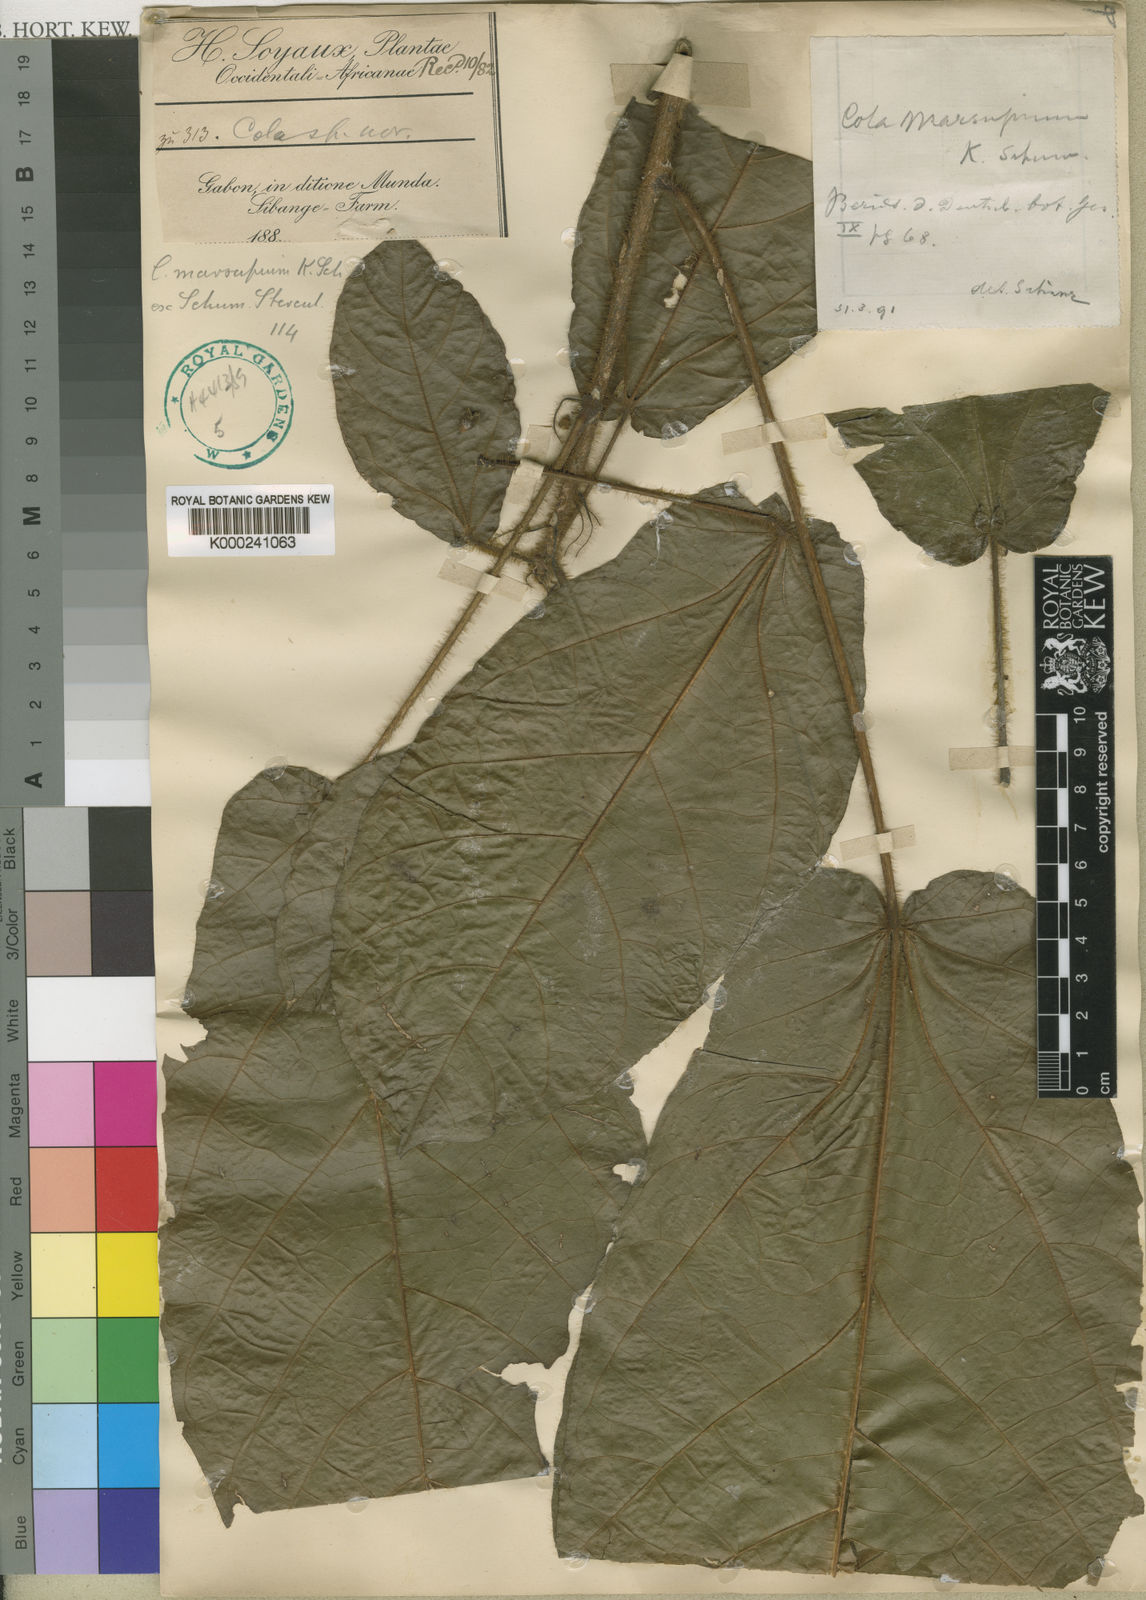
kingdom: Plantae
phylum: Tracheophyta
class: Magnoliopsida
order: Malvales
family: Malvaceae
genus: Cola
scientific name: Cola
